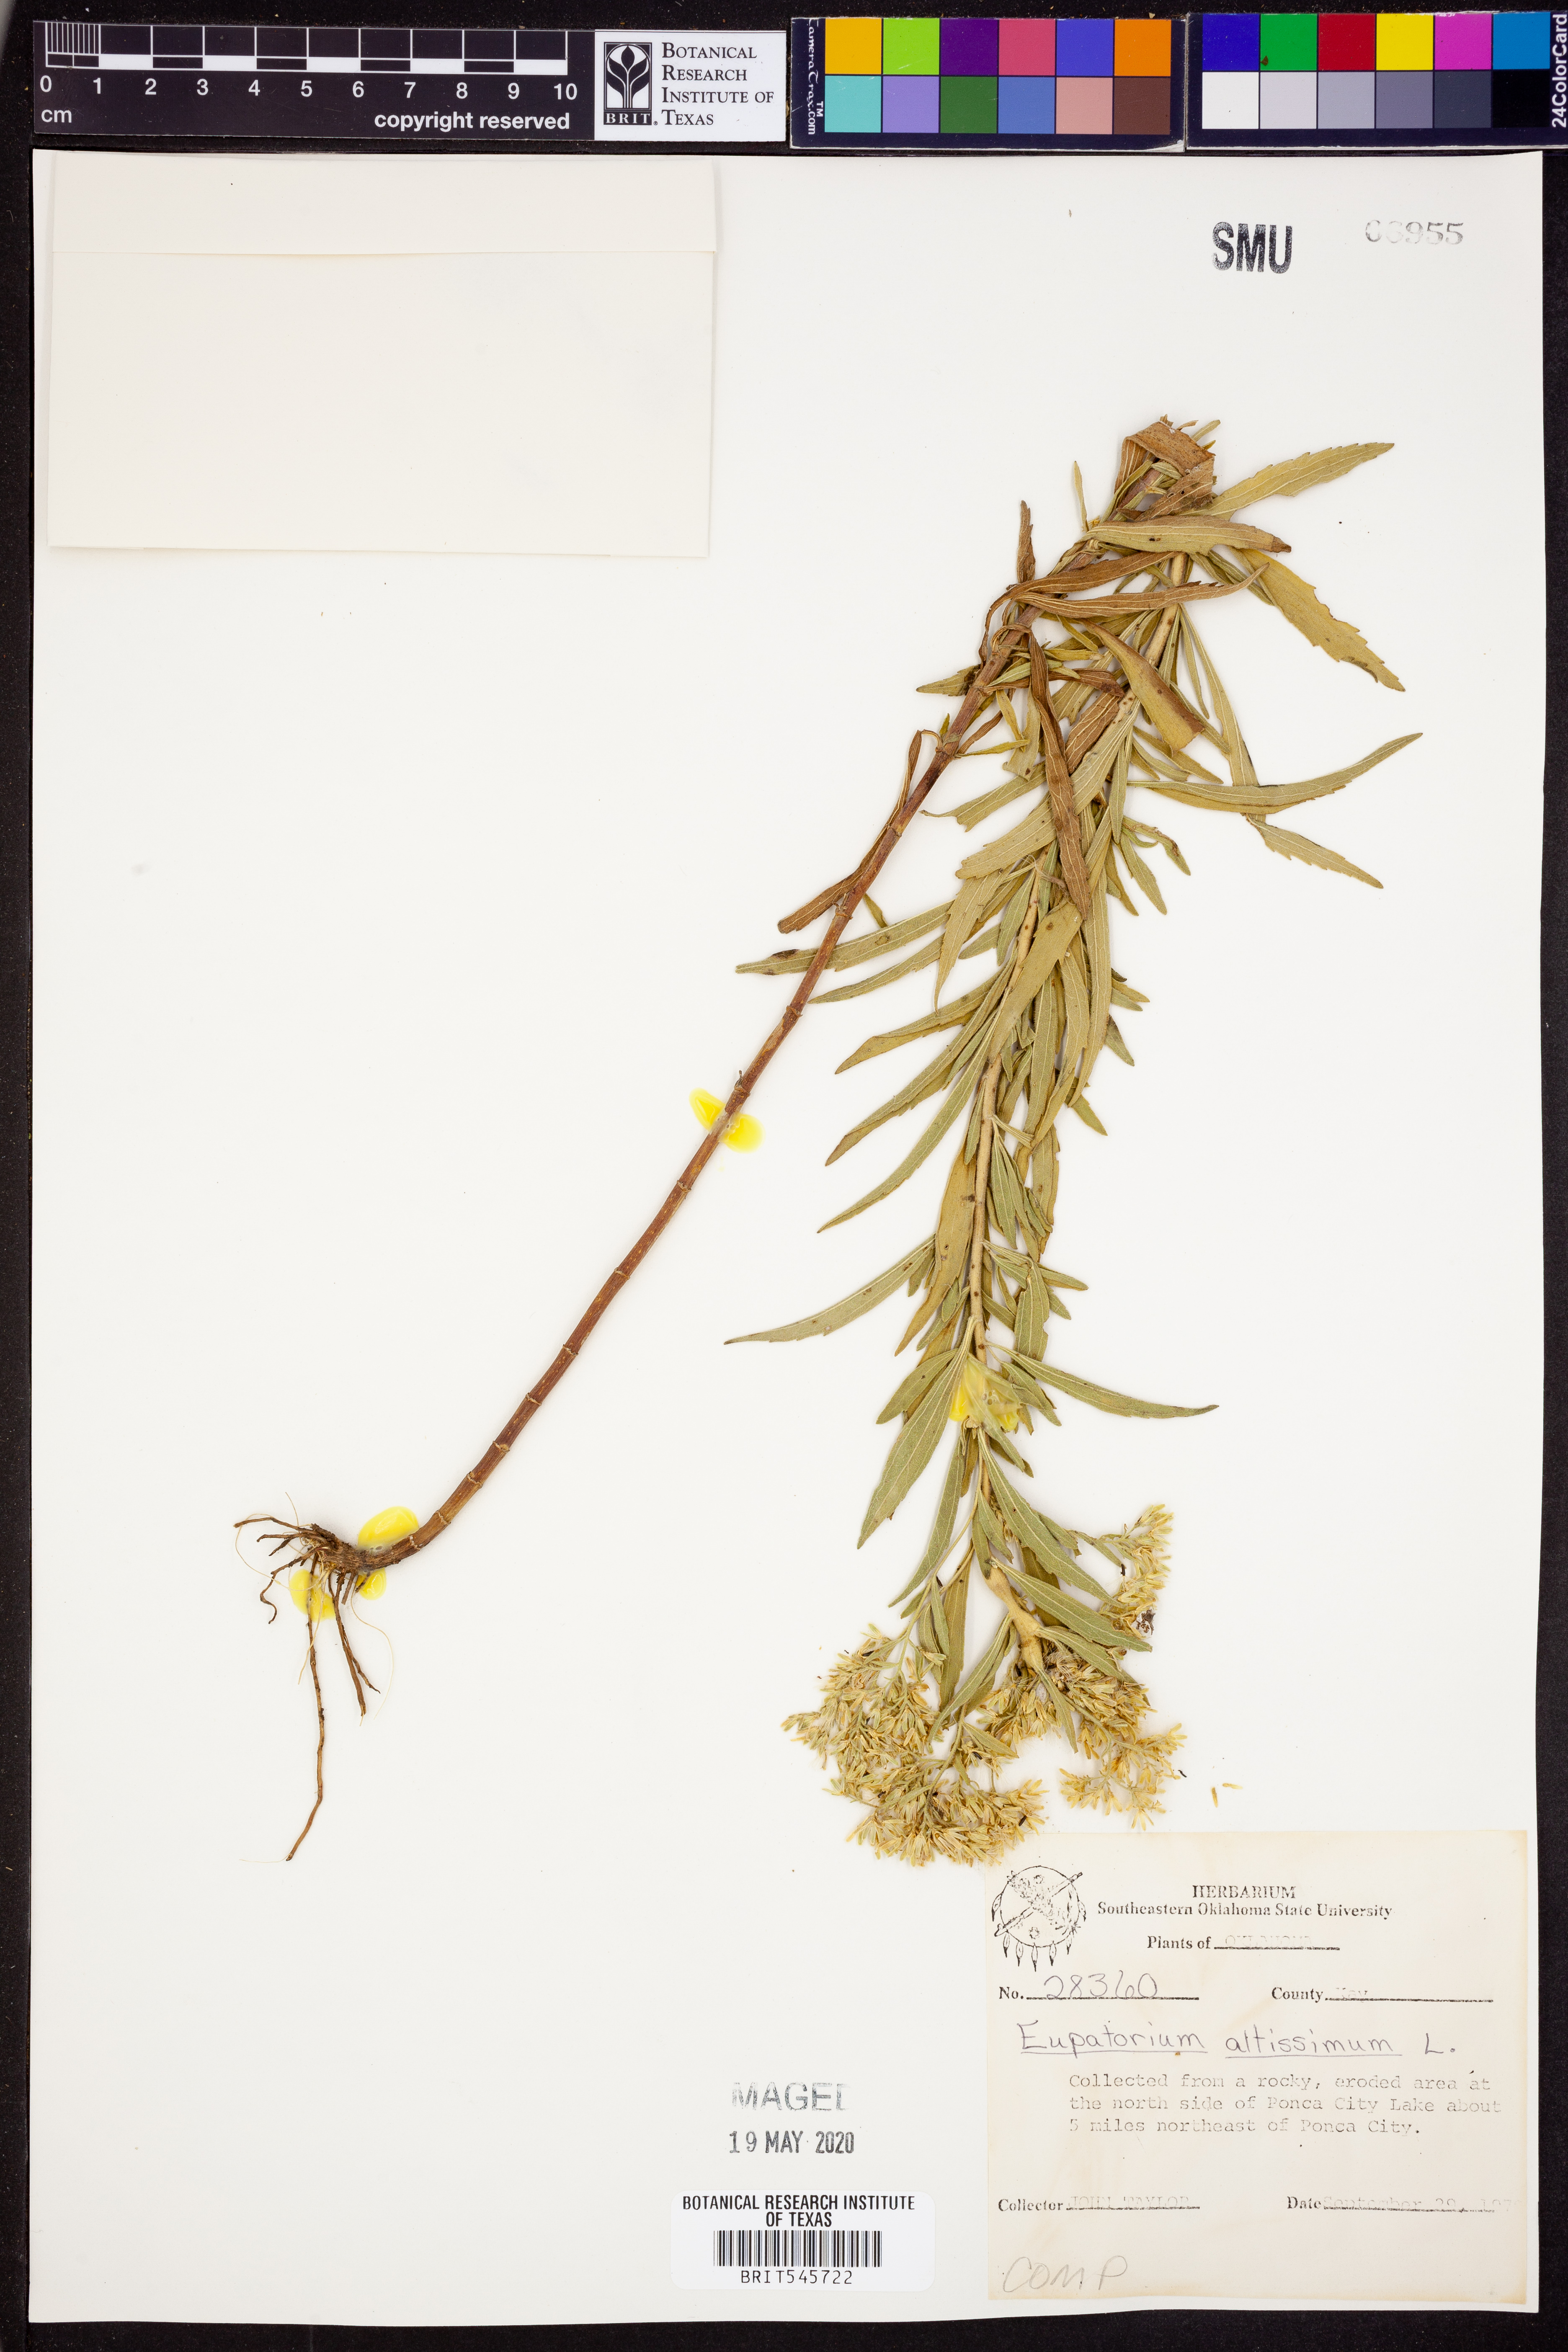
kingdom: Plantae
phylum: Tracheophyta
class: Magnoliopsida
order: Asterales
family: Asteraceae
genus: Eupatorium
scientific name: Eupatorium altissimum
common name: Tall thoroughwort
